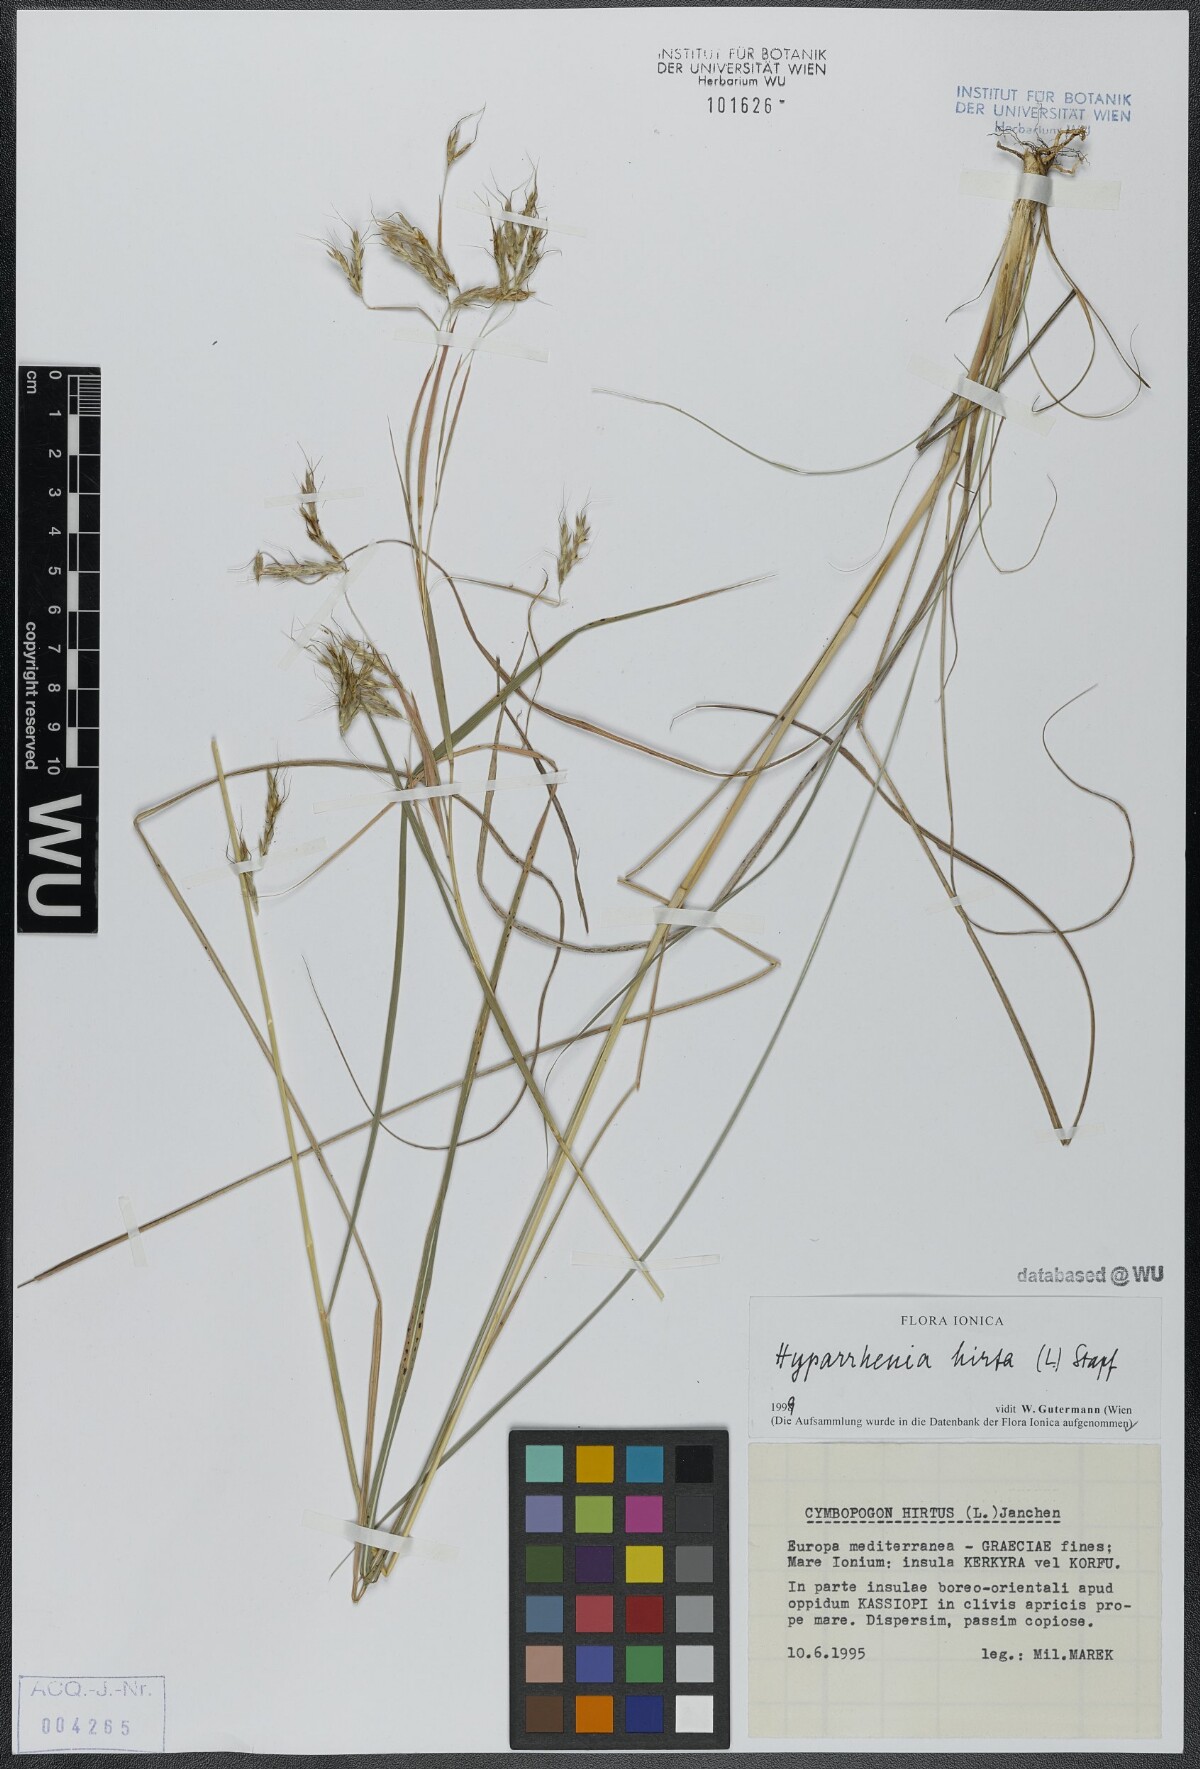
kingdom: Plantae
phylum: Tracheophyta
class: Liliopsida
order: Poales
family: Poaceae
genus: Hyparrhenia
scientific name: Hyparrhenia hirta
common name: Thatching grass
